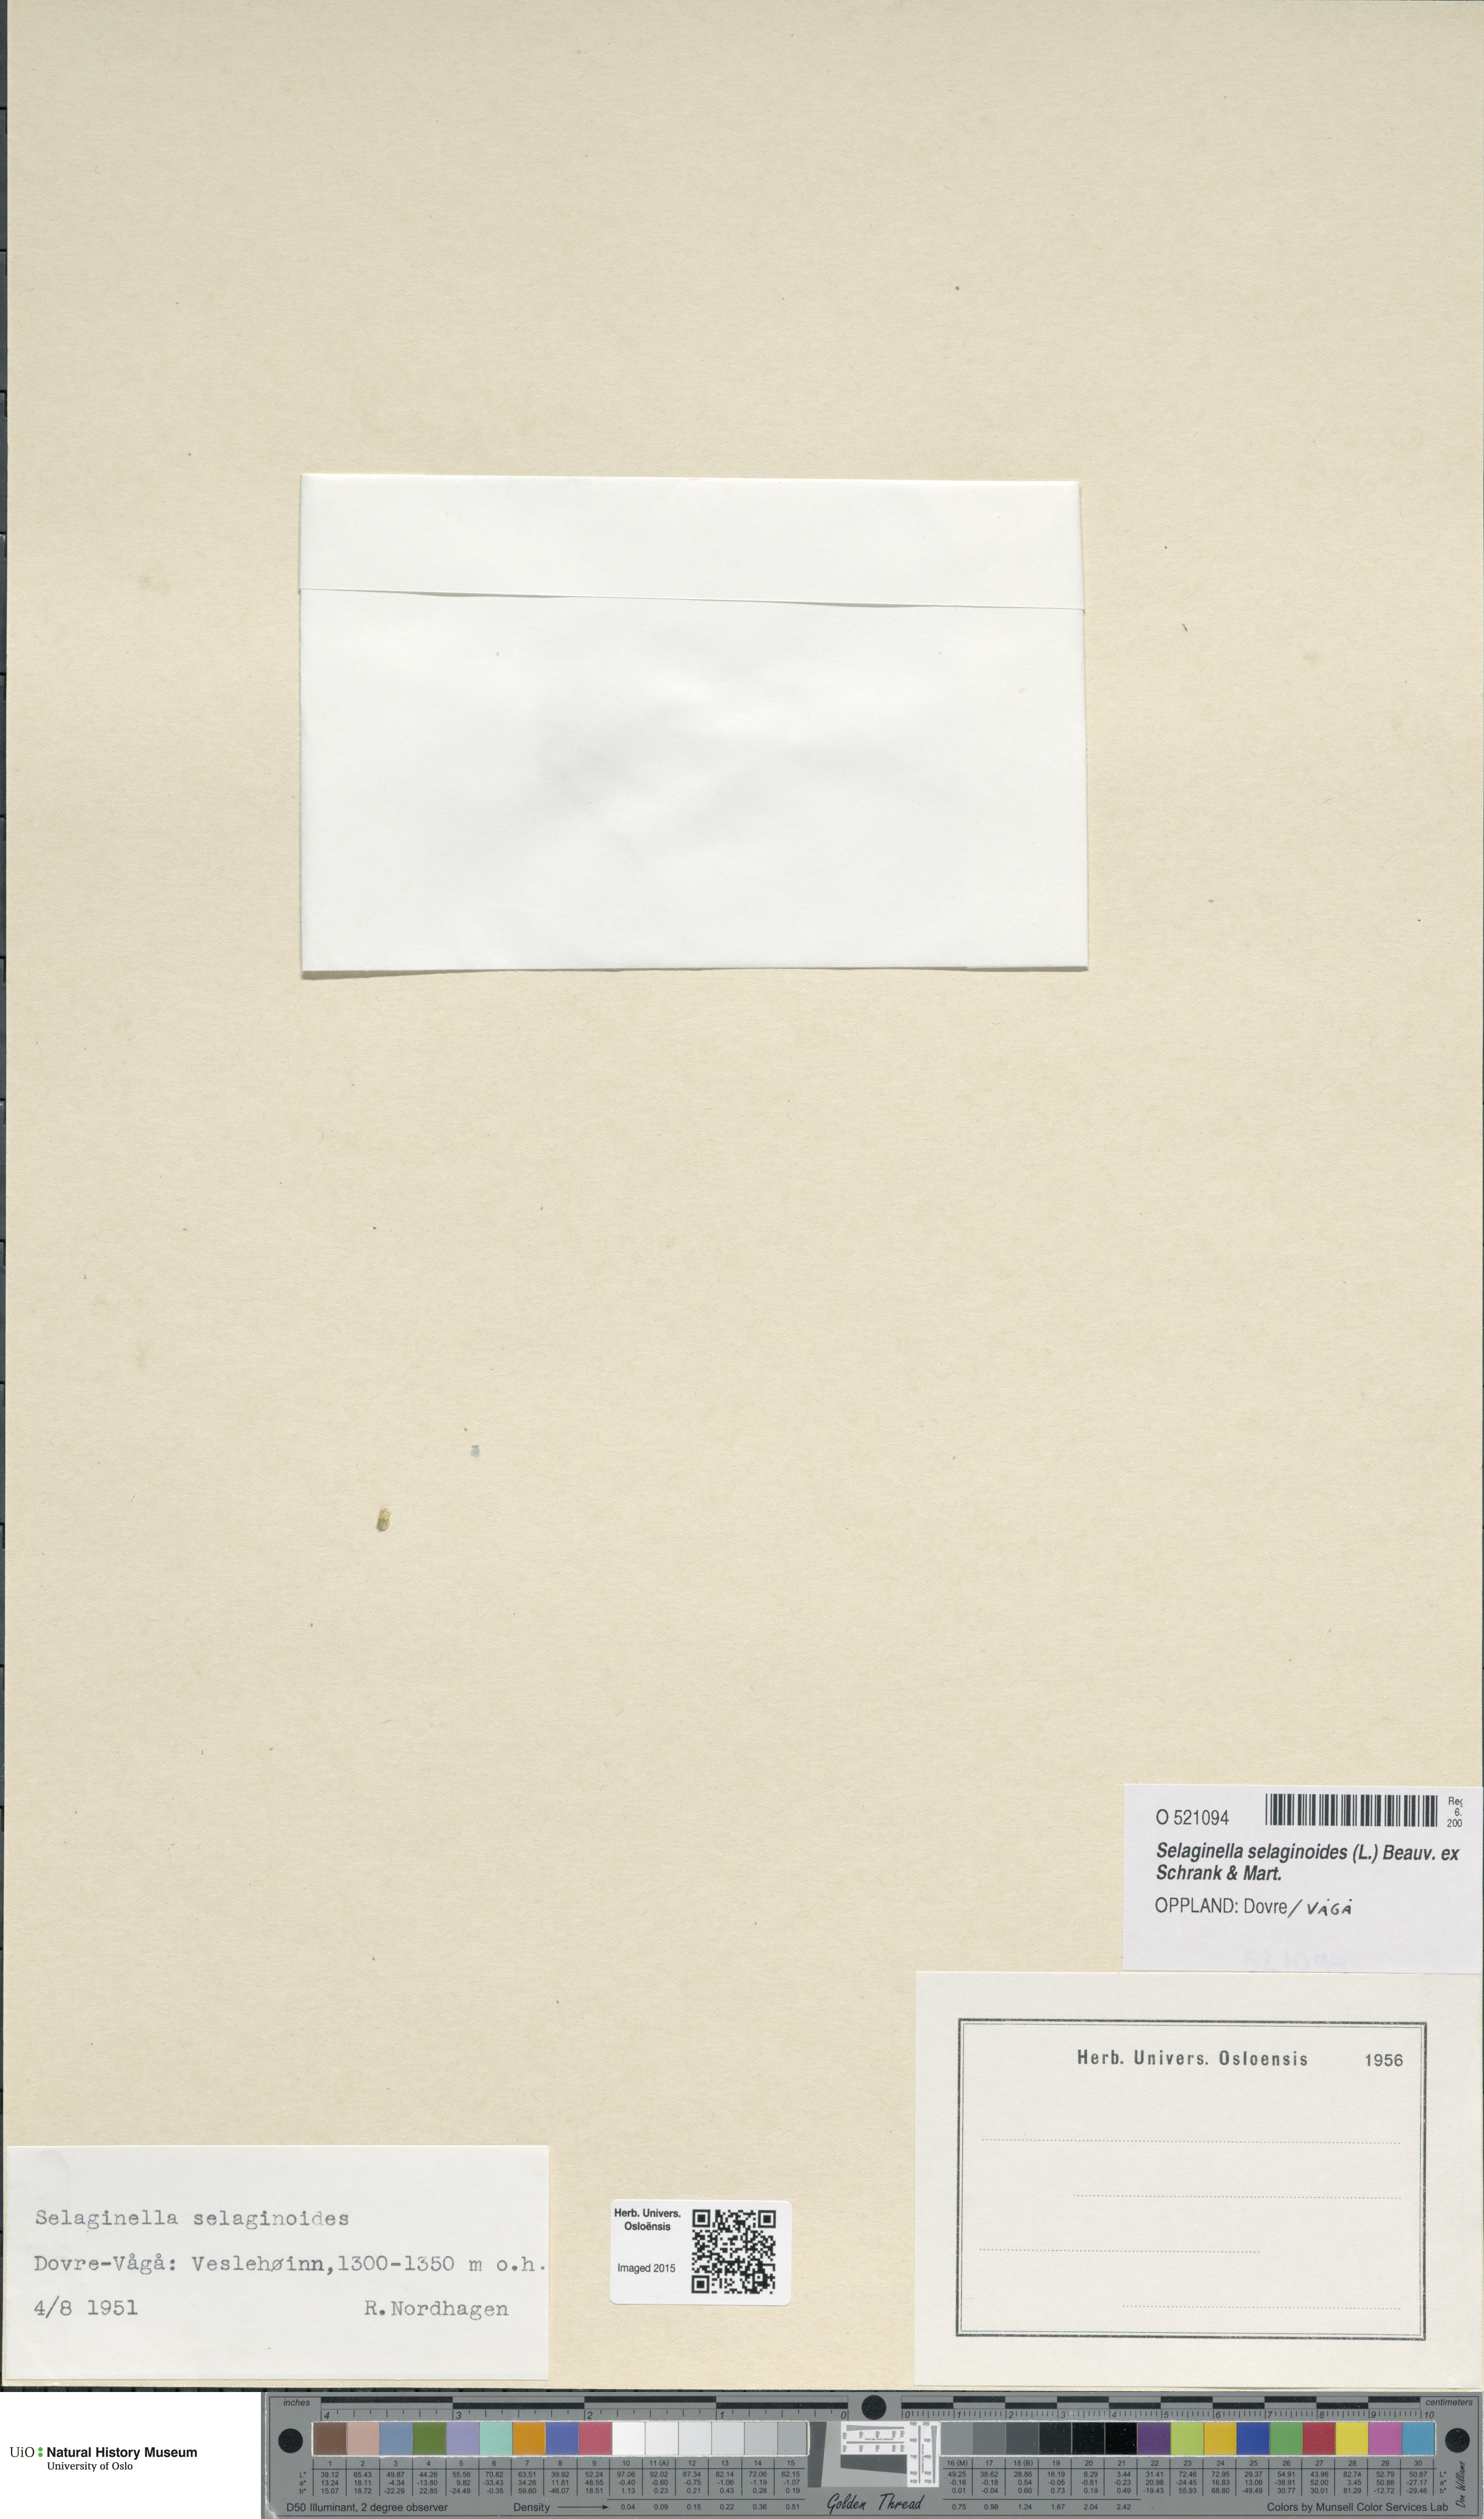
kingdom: Plantae
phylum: Tracheophyta
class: Lycopodiopsida
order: Selaginellales
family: Selaginellaceae
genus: Selaginella
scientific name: Selaginella selaginoides
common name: Prickly mountain-moss
